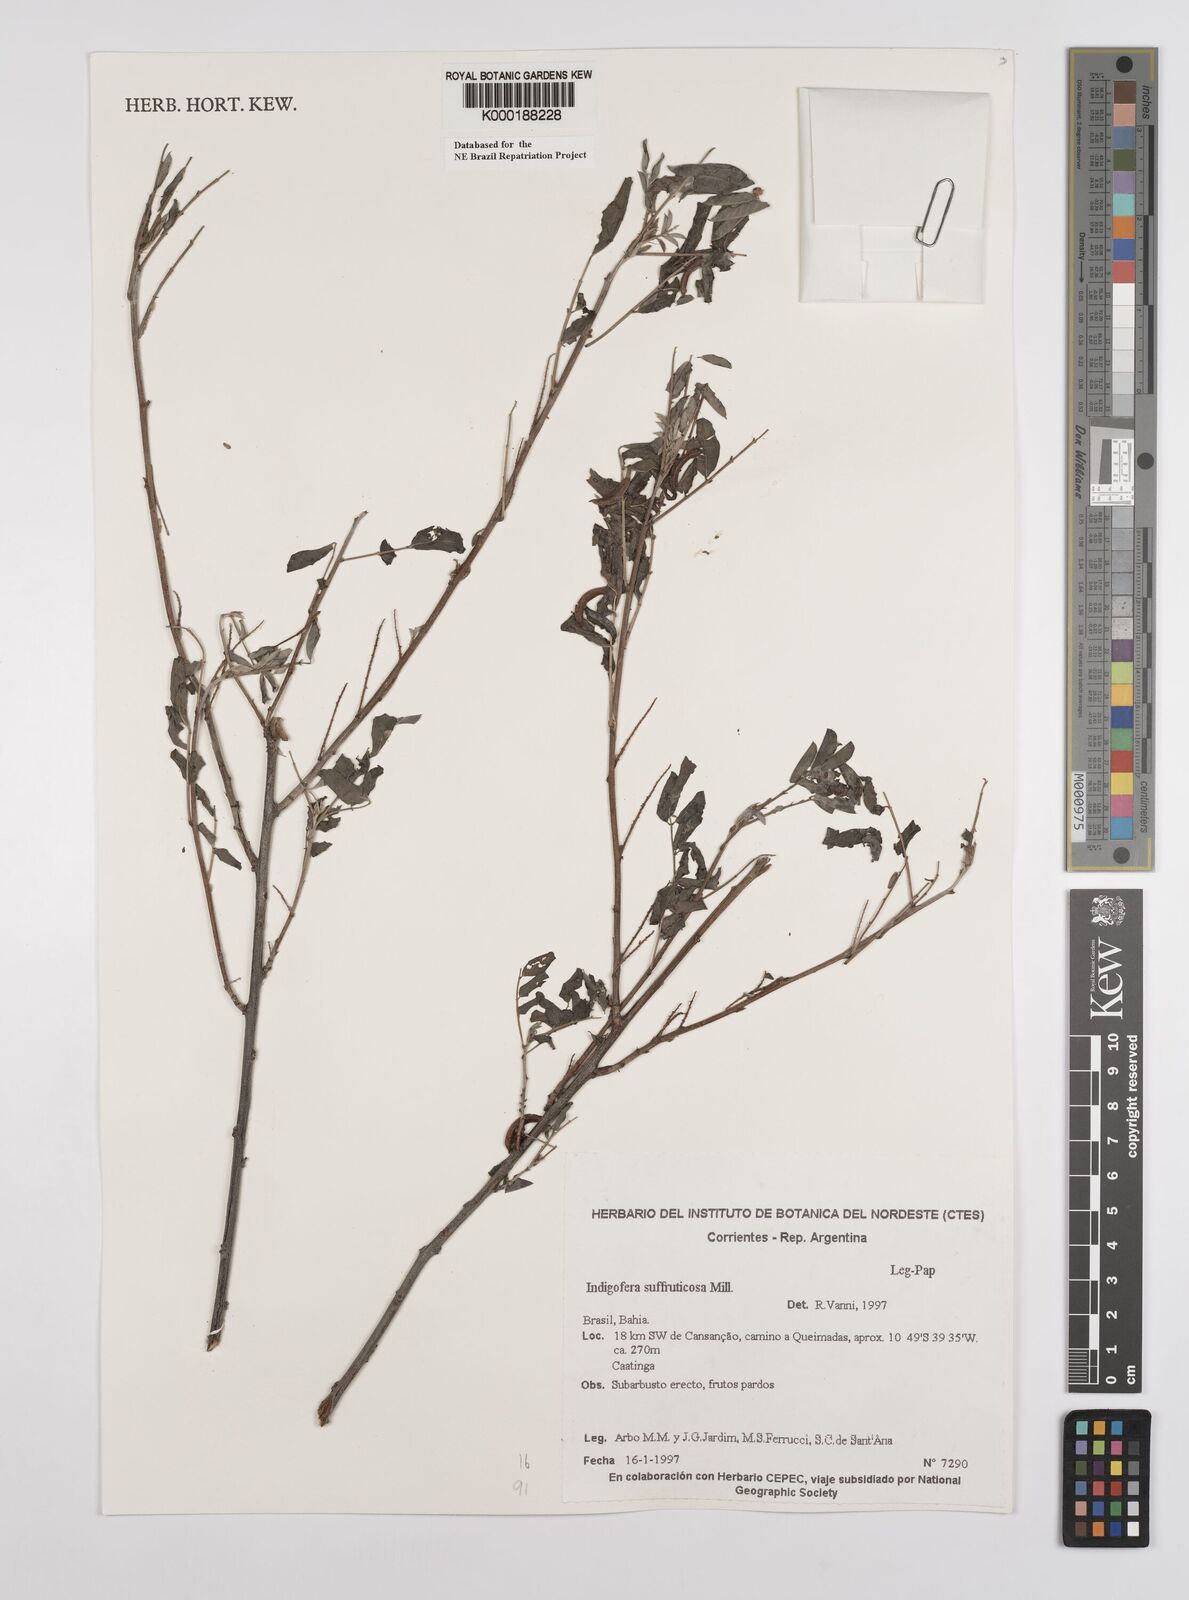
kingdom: Plantae
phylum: Tracheophyta
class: Magnoliopsida
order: Fabales
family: Fabaceae
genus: Indigofera
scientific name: Indigofera suffruticosa
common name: Anil de pasto
